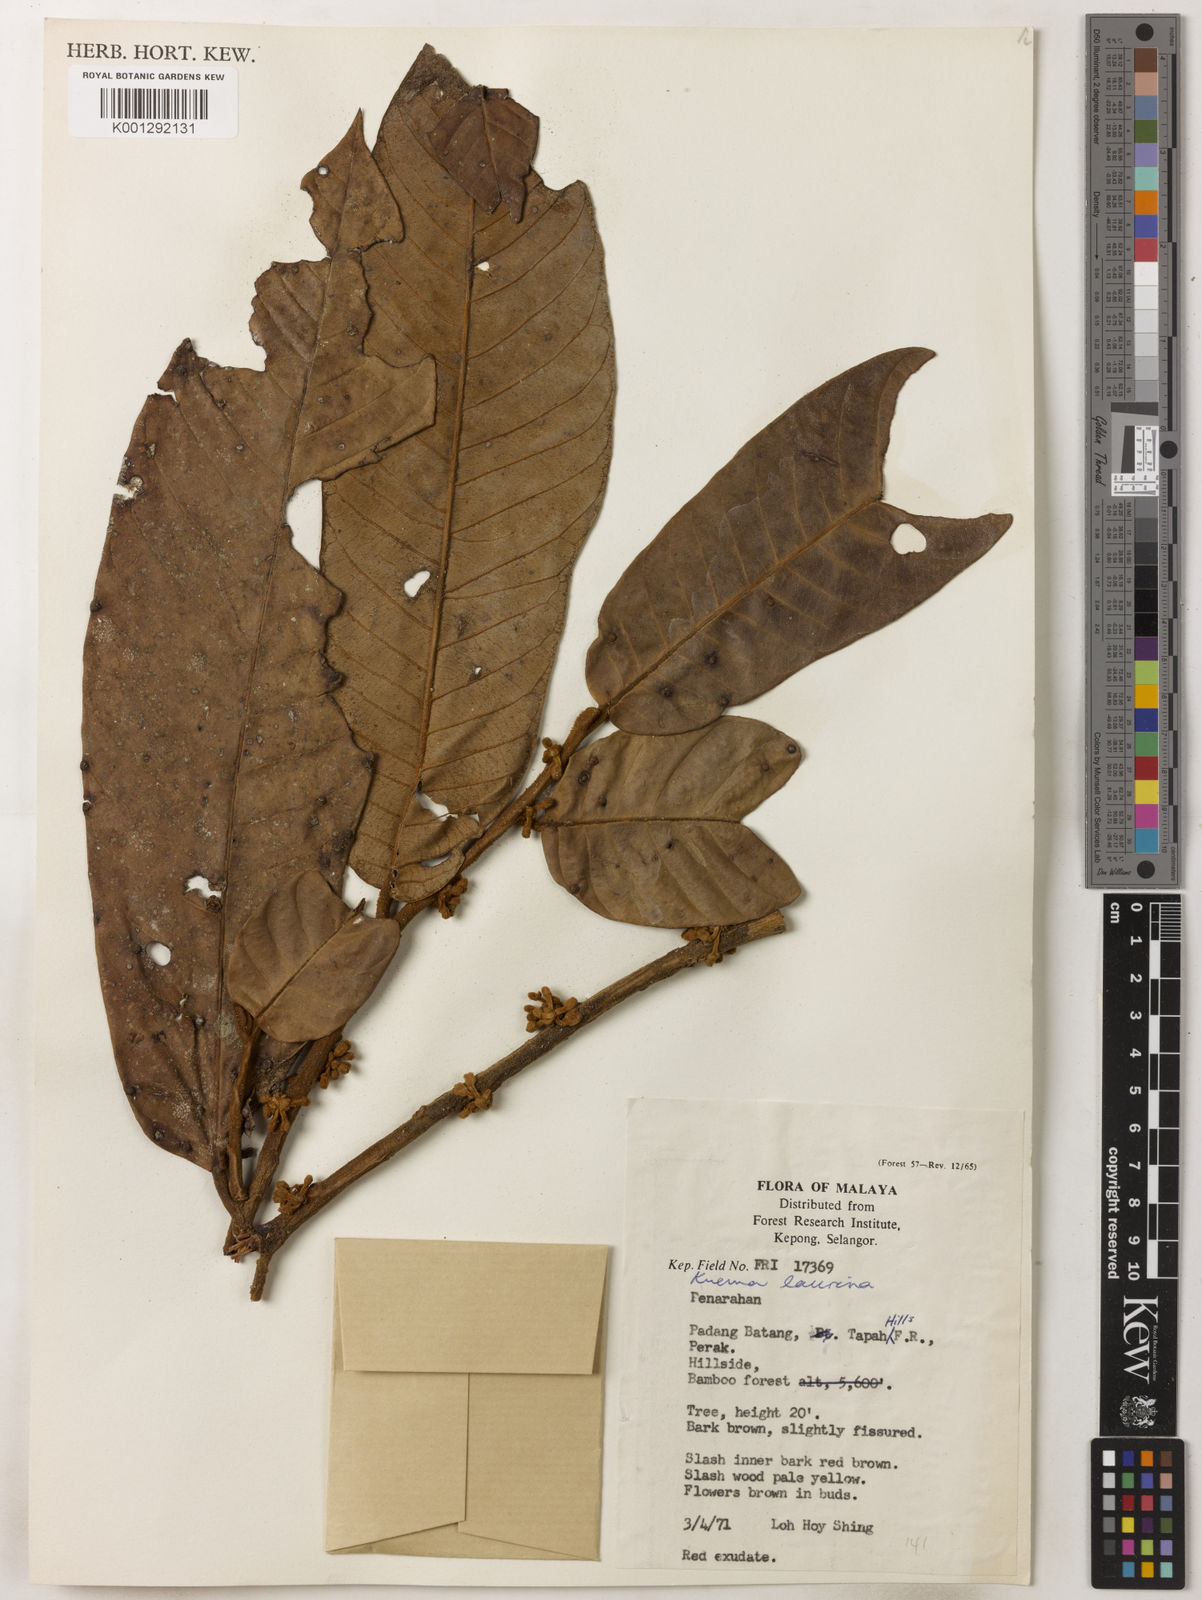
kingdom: Plantae
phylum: Tracheophyta
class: Magnoliopsida
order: Magnoliales
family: Myristicaceae
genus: Knema
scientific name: Knema laurina
